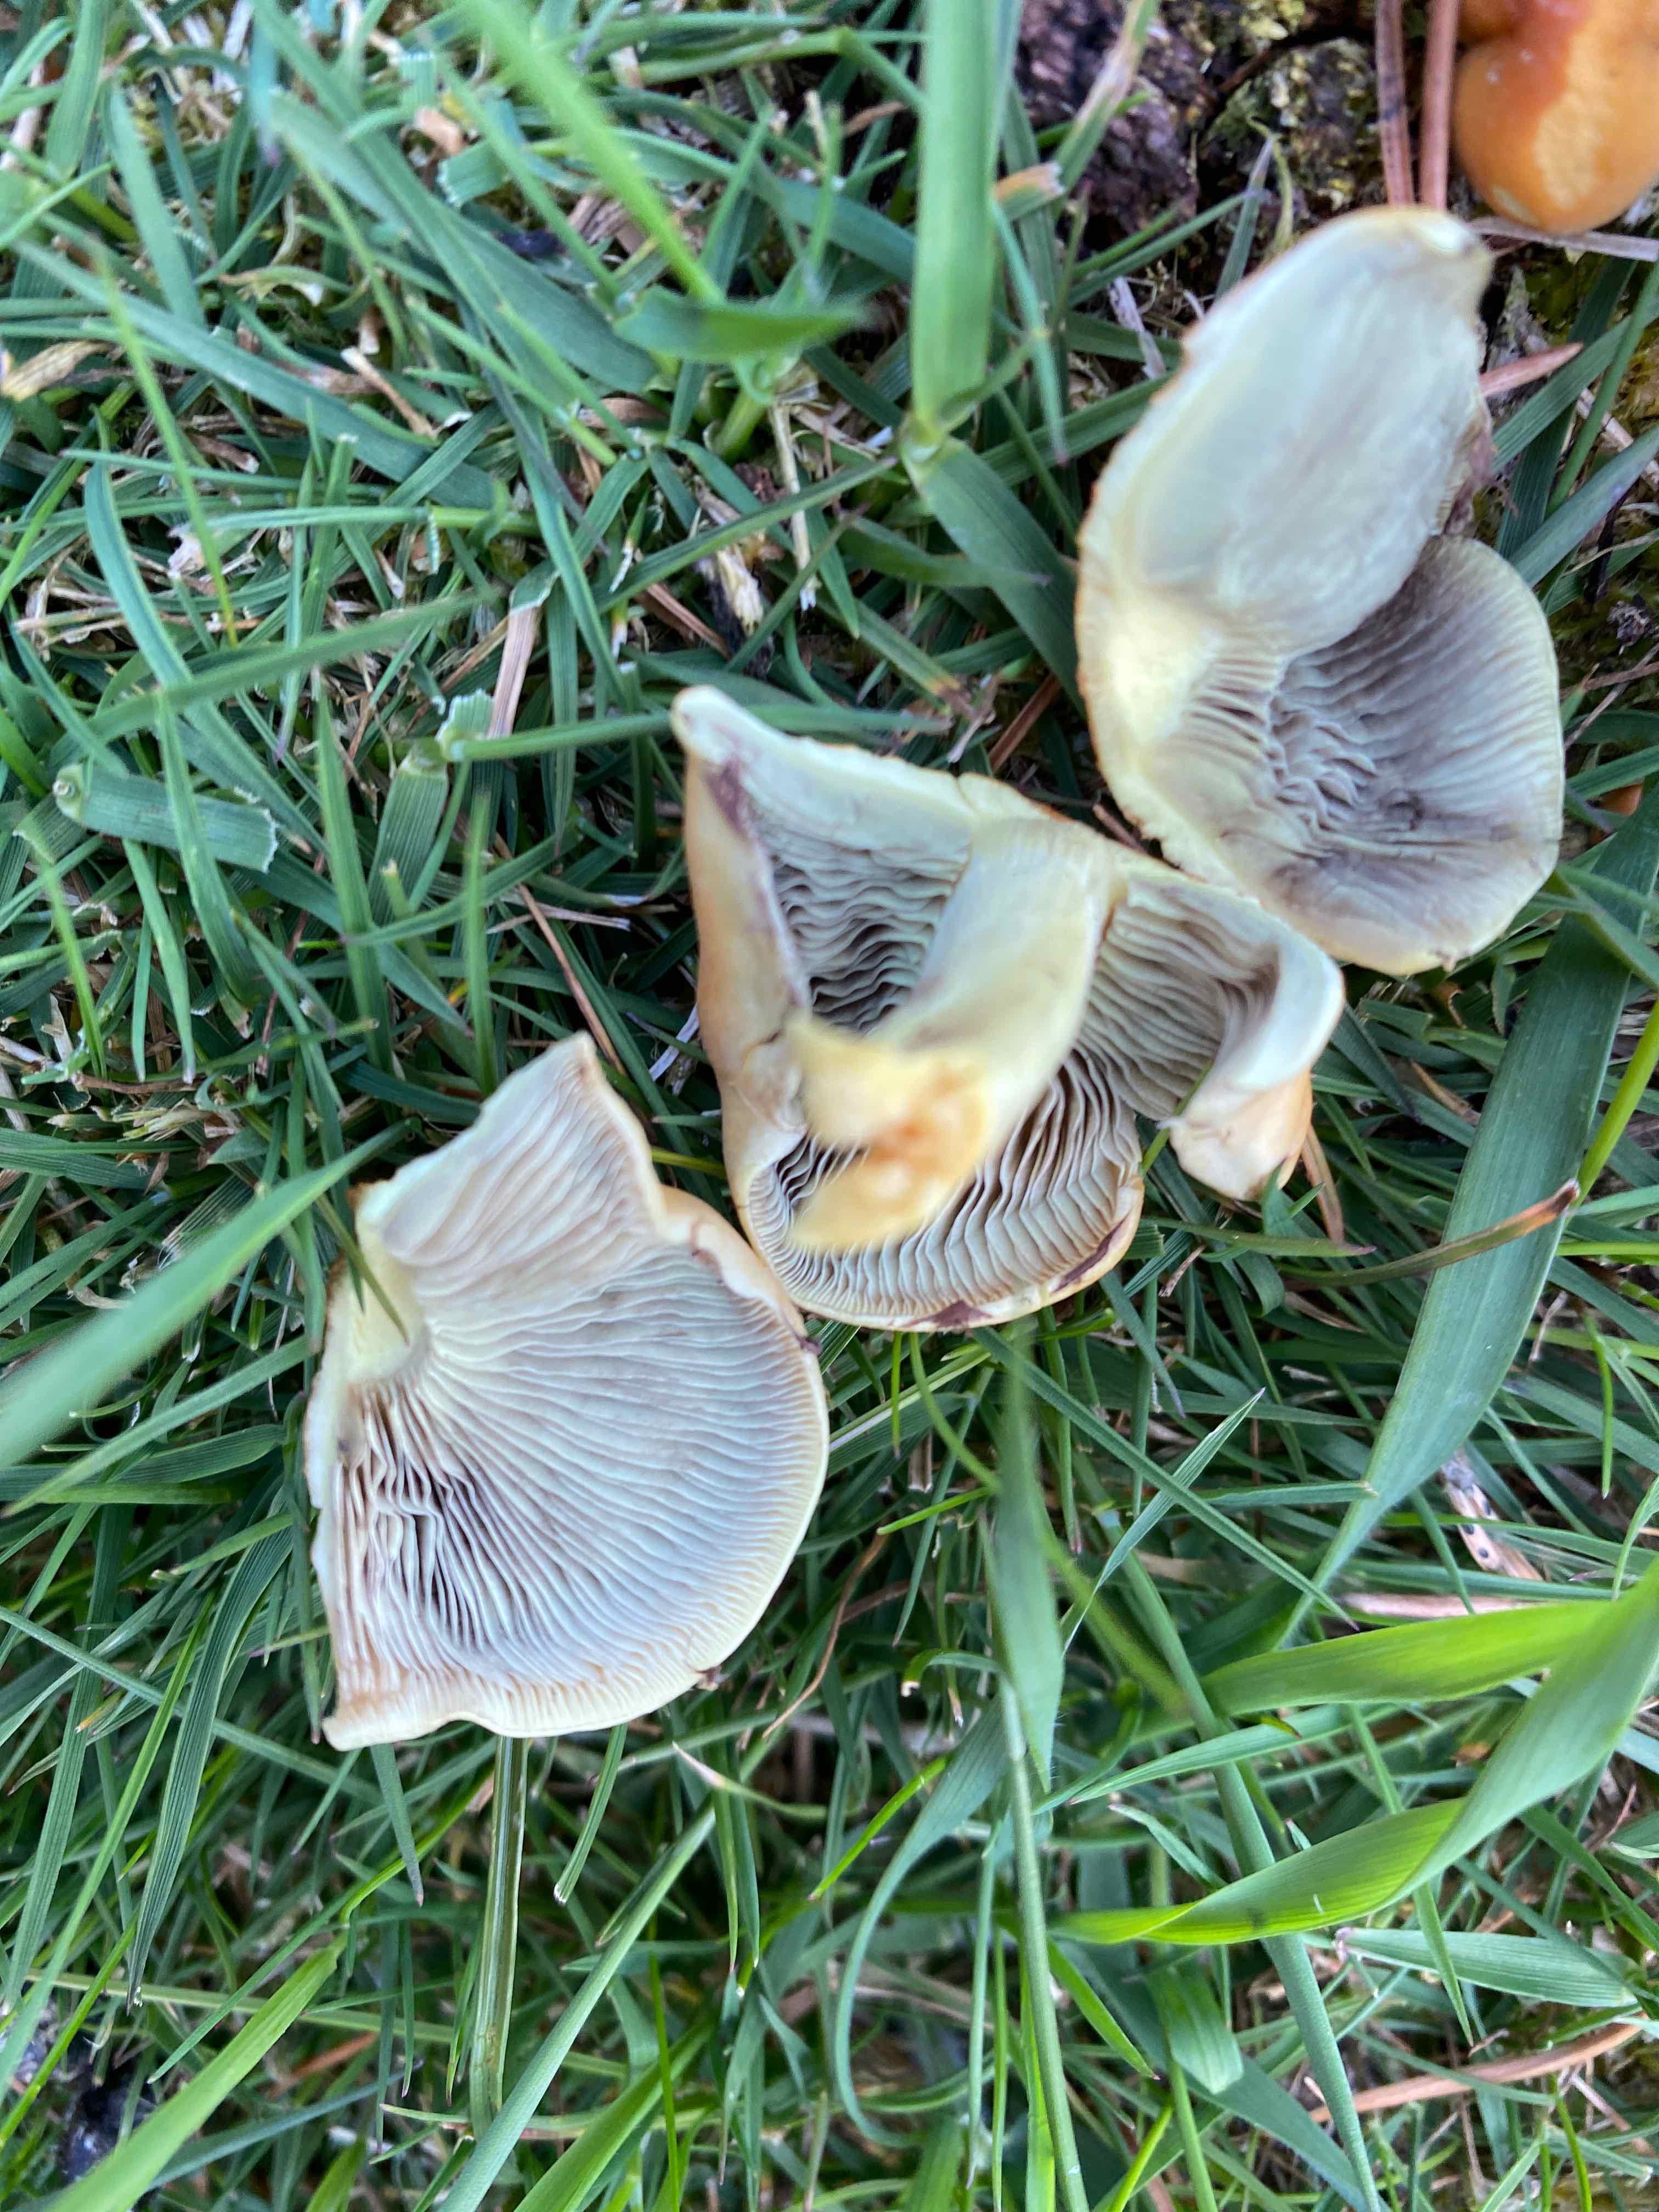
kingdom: Fungi
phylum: Basidiomycota
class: Agaricomycetes
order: Agaricales
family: Strophariaceae
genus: Hypholoma
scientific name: Hypholoma fasciculare
